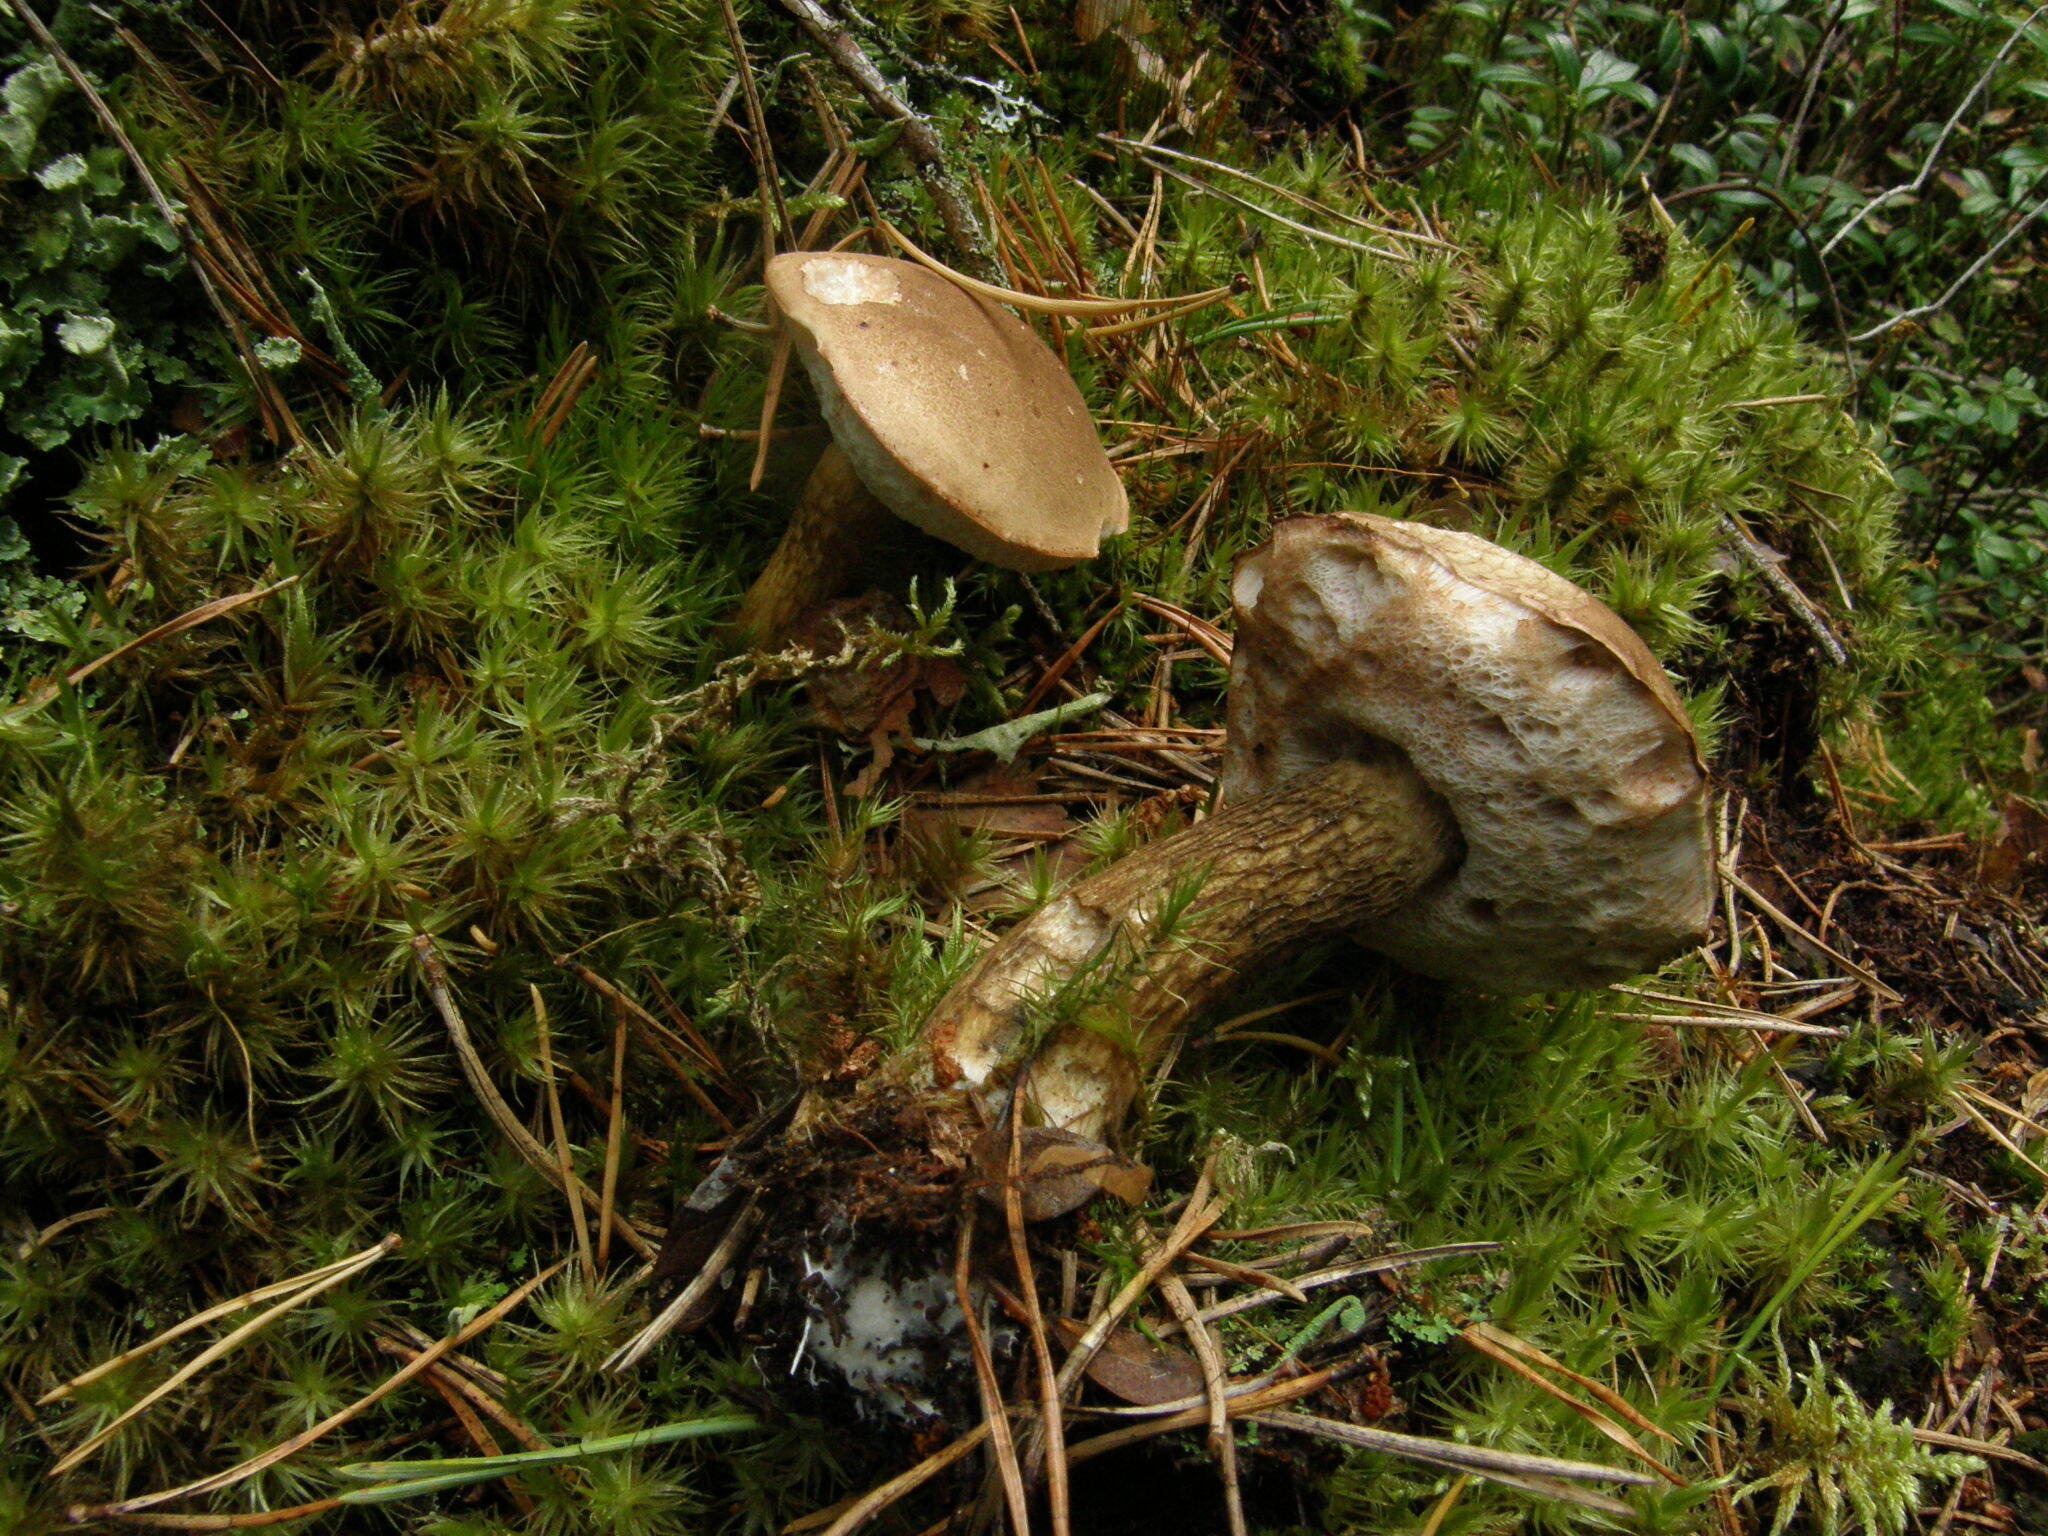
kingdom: Fungi
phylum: Basidiomycota
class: Agaricomycetes
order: Boletales
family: Boletaceae
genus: Tylopilus
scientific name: Tylopilus felleus
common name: Bitter bolete
